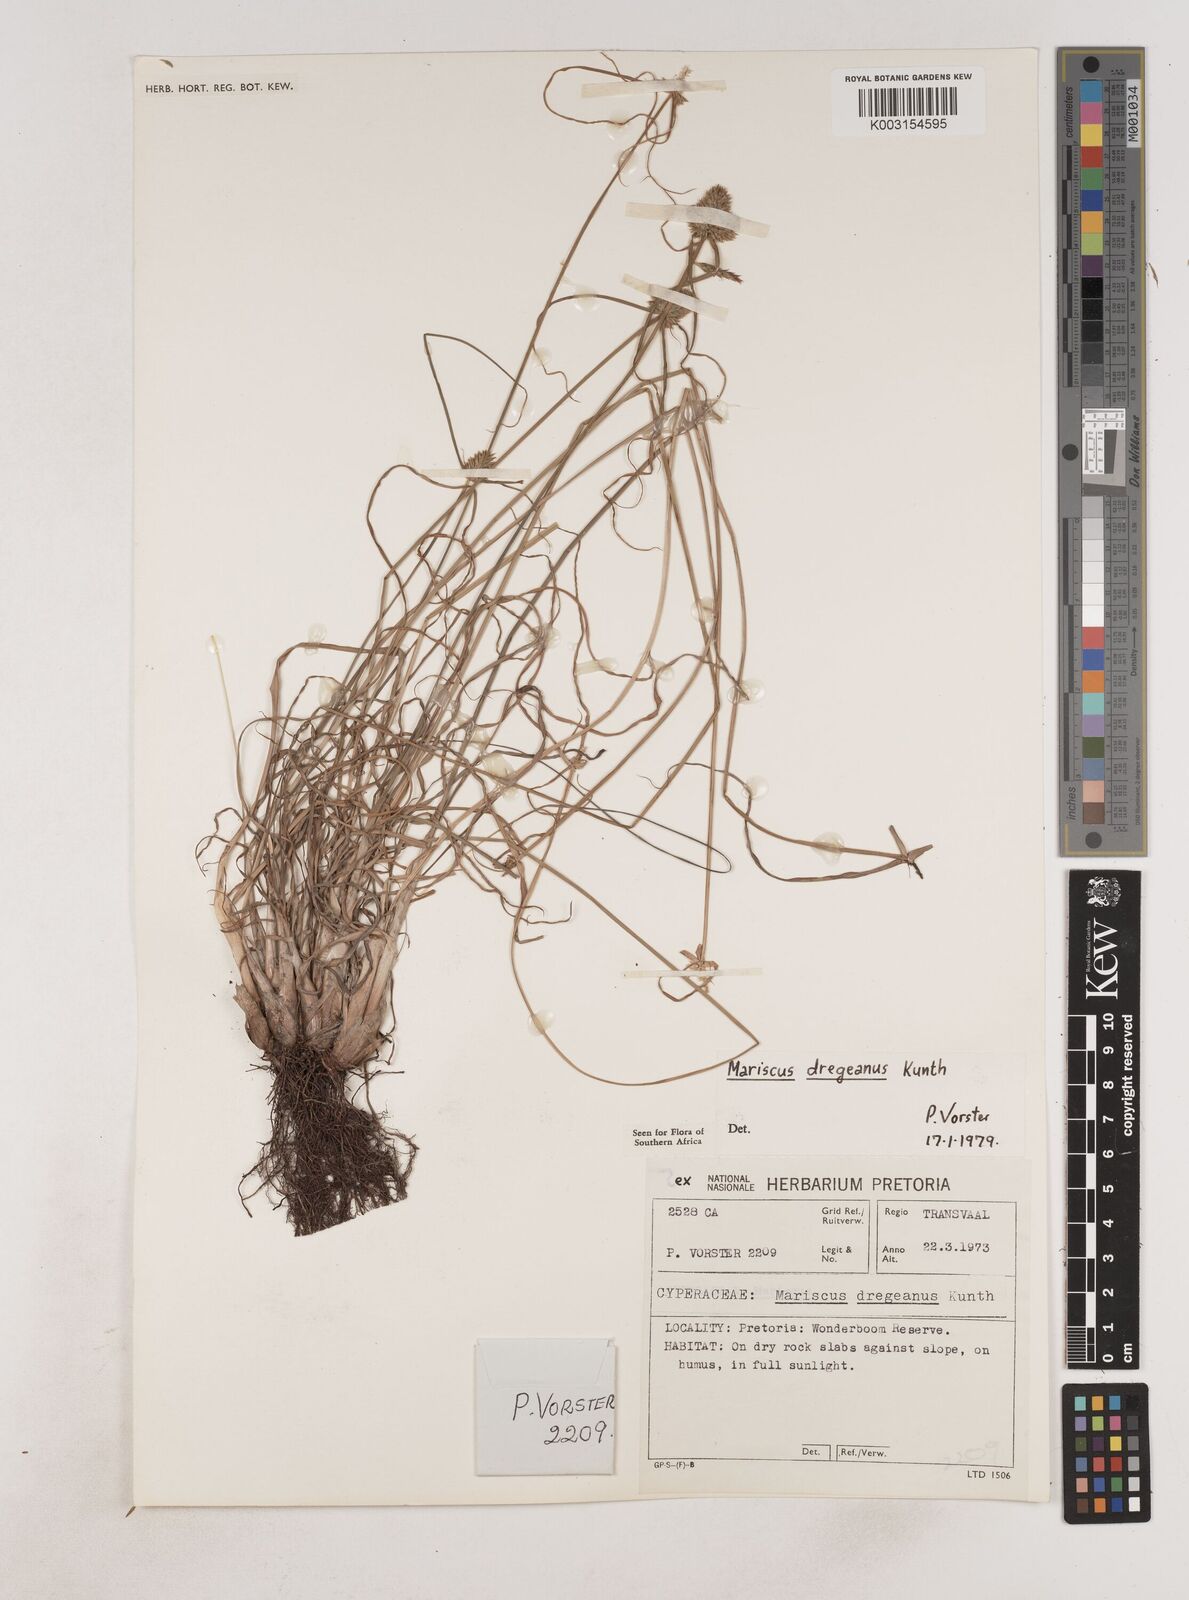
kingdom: Plantae
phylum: Tracheophyta
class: Liliopsida
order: Poales
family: Cyperaceae
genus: Cyperus
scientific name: Cyperus dubius
